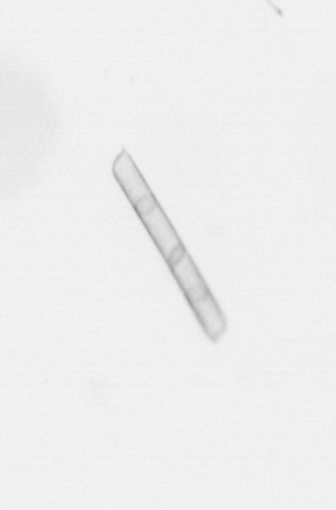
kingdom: Chromista
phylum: Ochrophyta
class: Bacillariophyceae
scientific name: Bacillariophyceae
